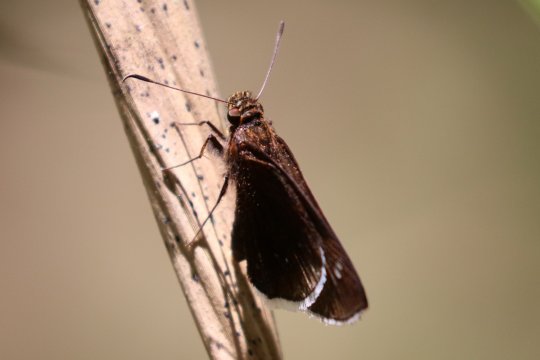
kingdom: Animalia
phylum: Arthropoda
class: Insecta
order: Lepidoptera
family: Hesperiidae
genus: Enosis
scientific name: Enosis aphilos
